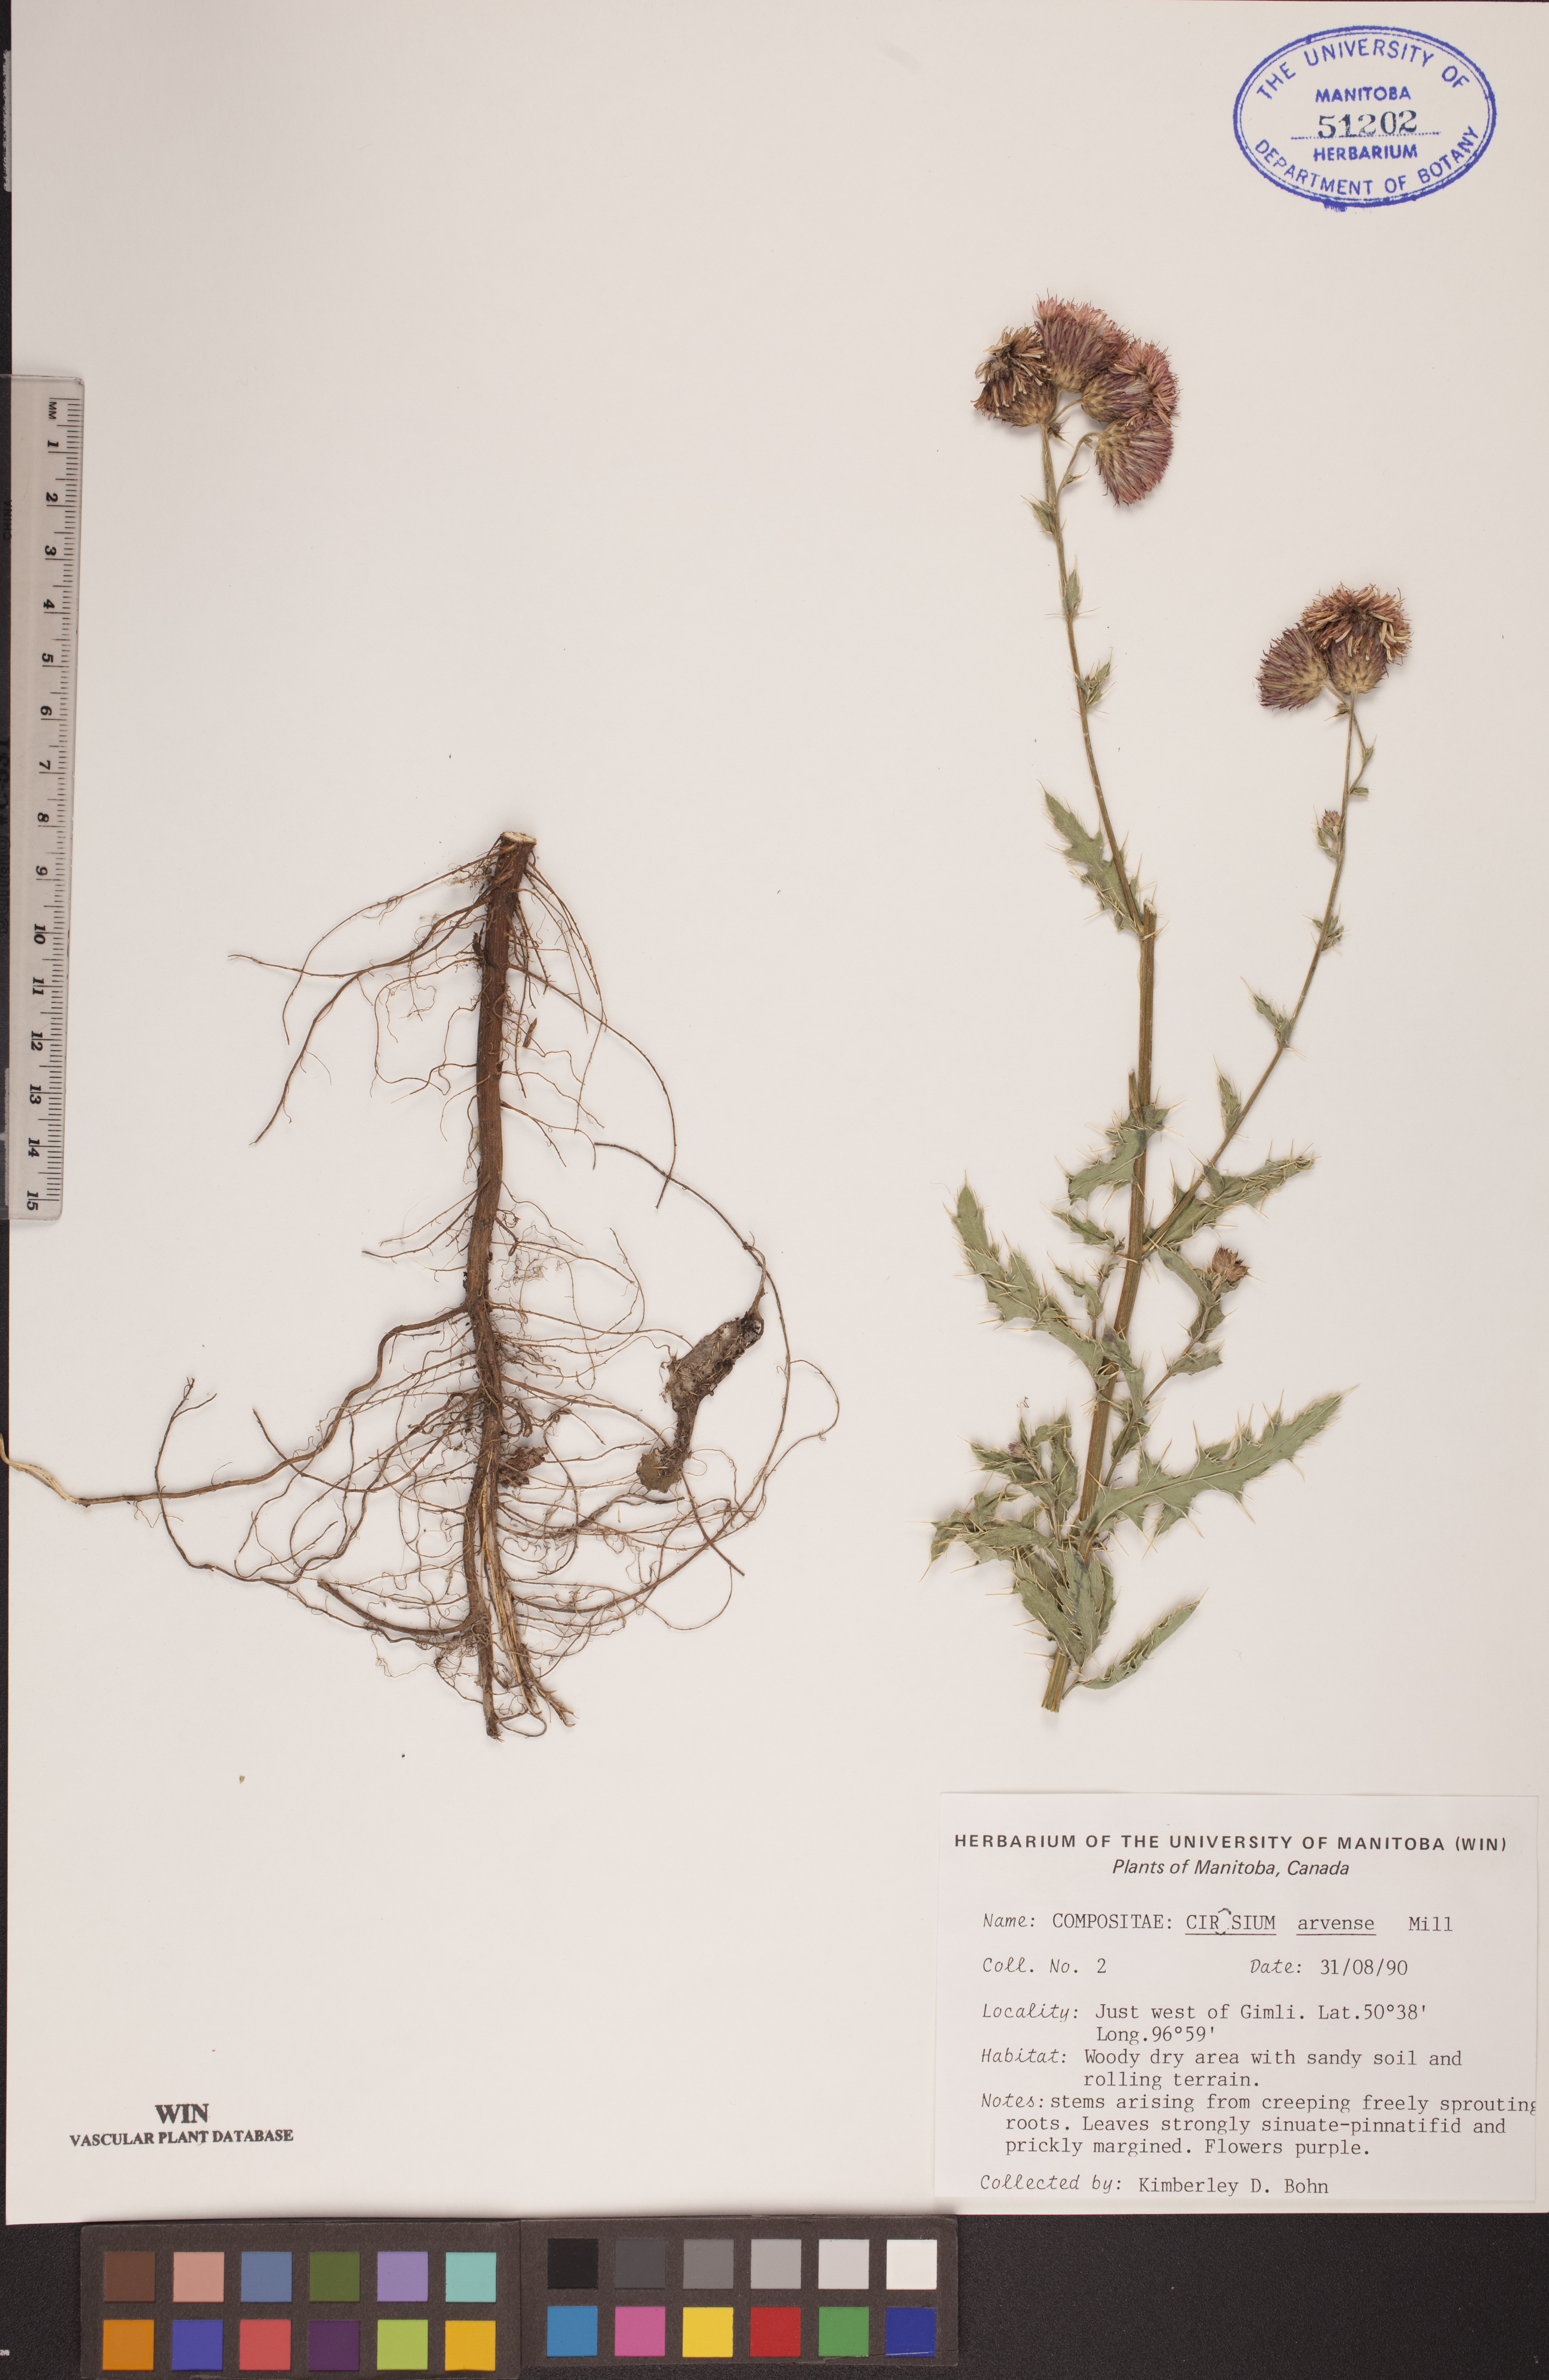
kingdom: Plantae
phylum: Tracheophyta
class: Magnoliopsida
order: Asterales
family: Asteraceae
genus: Cirsium
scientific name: Cirsium arvense
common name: Creeping thistle
